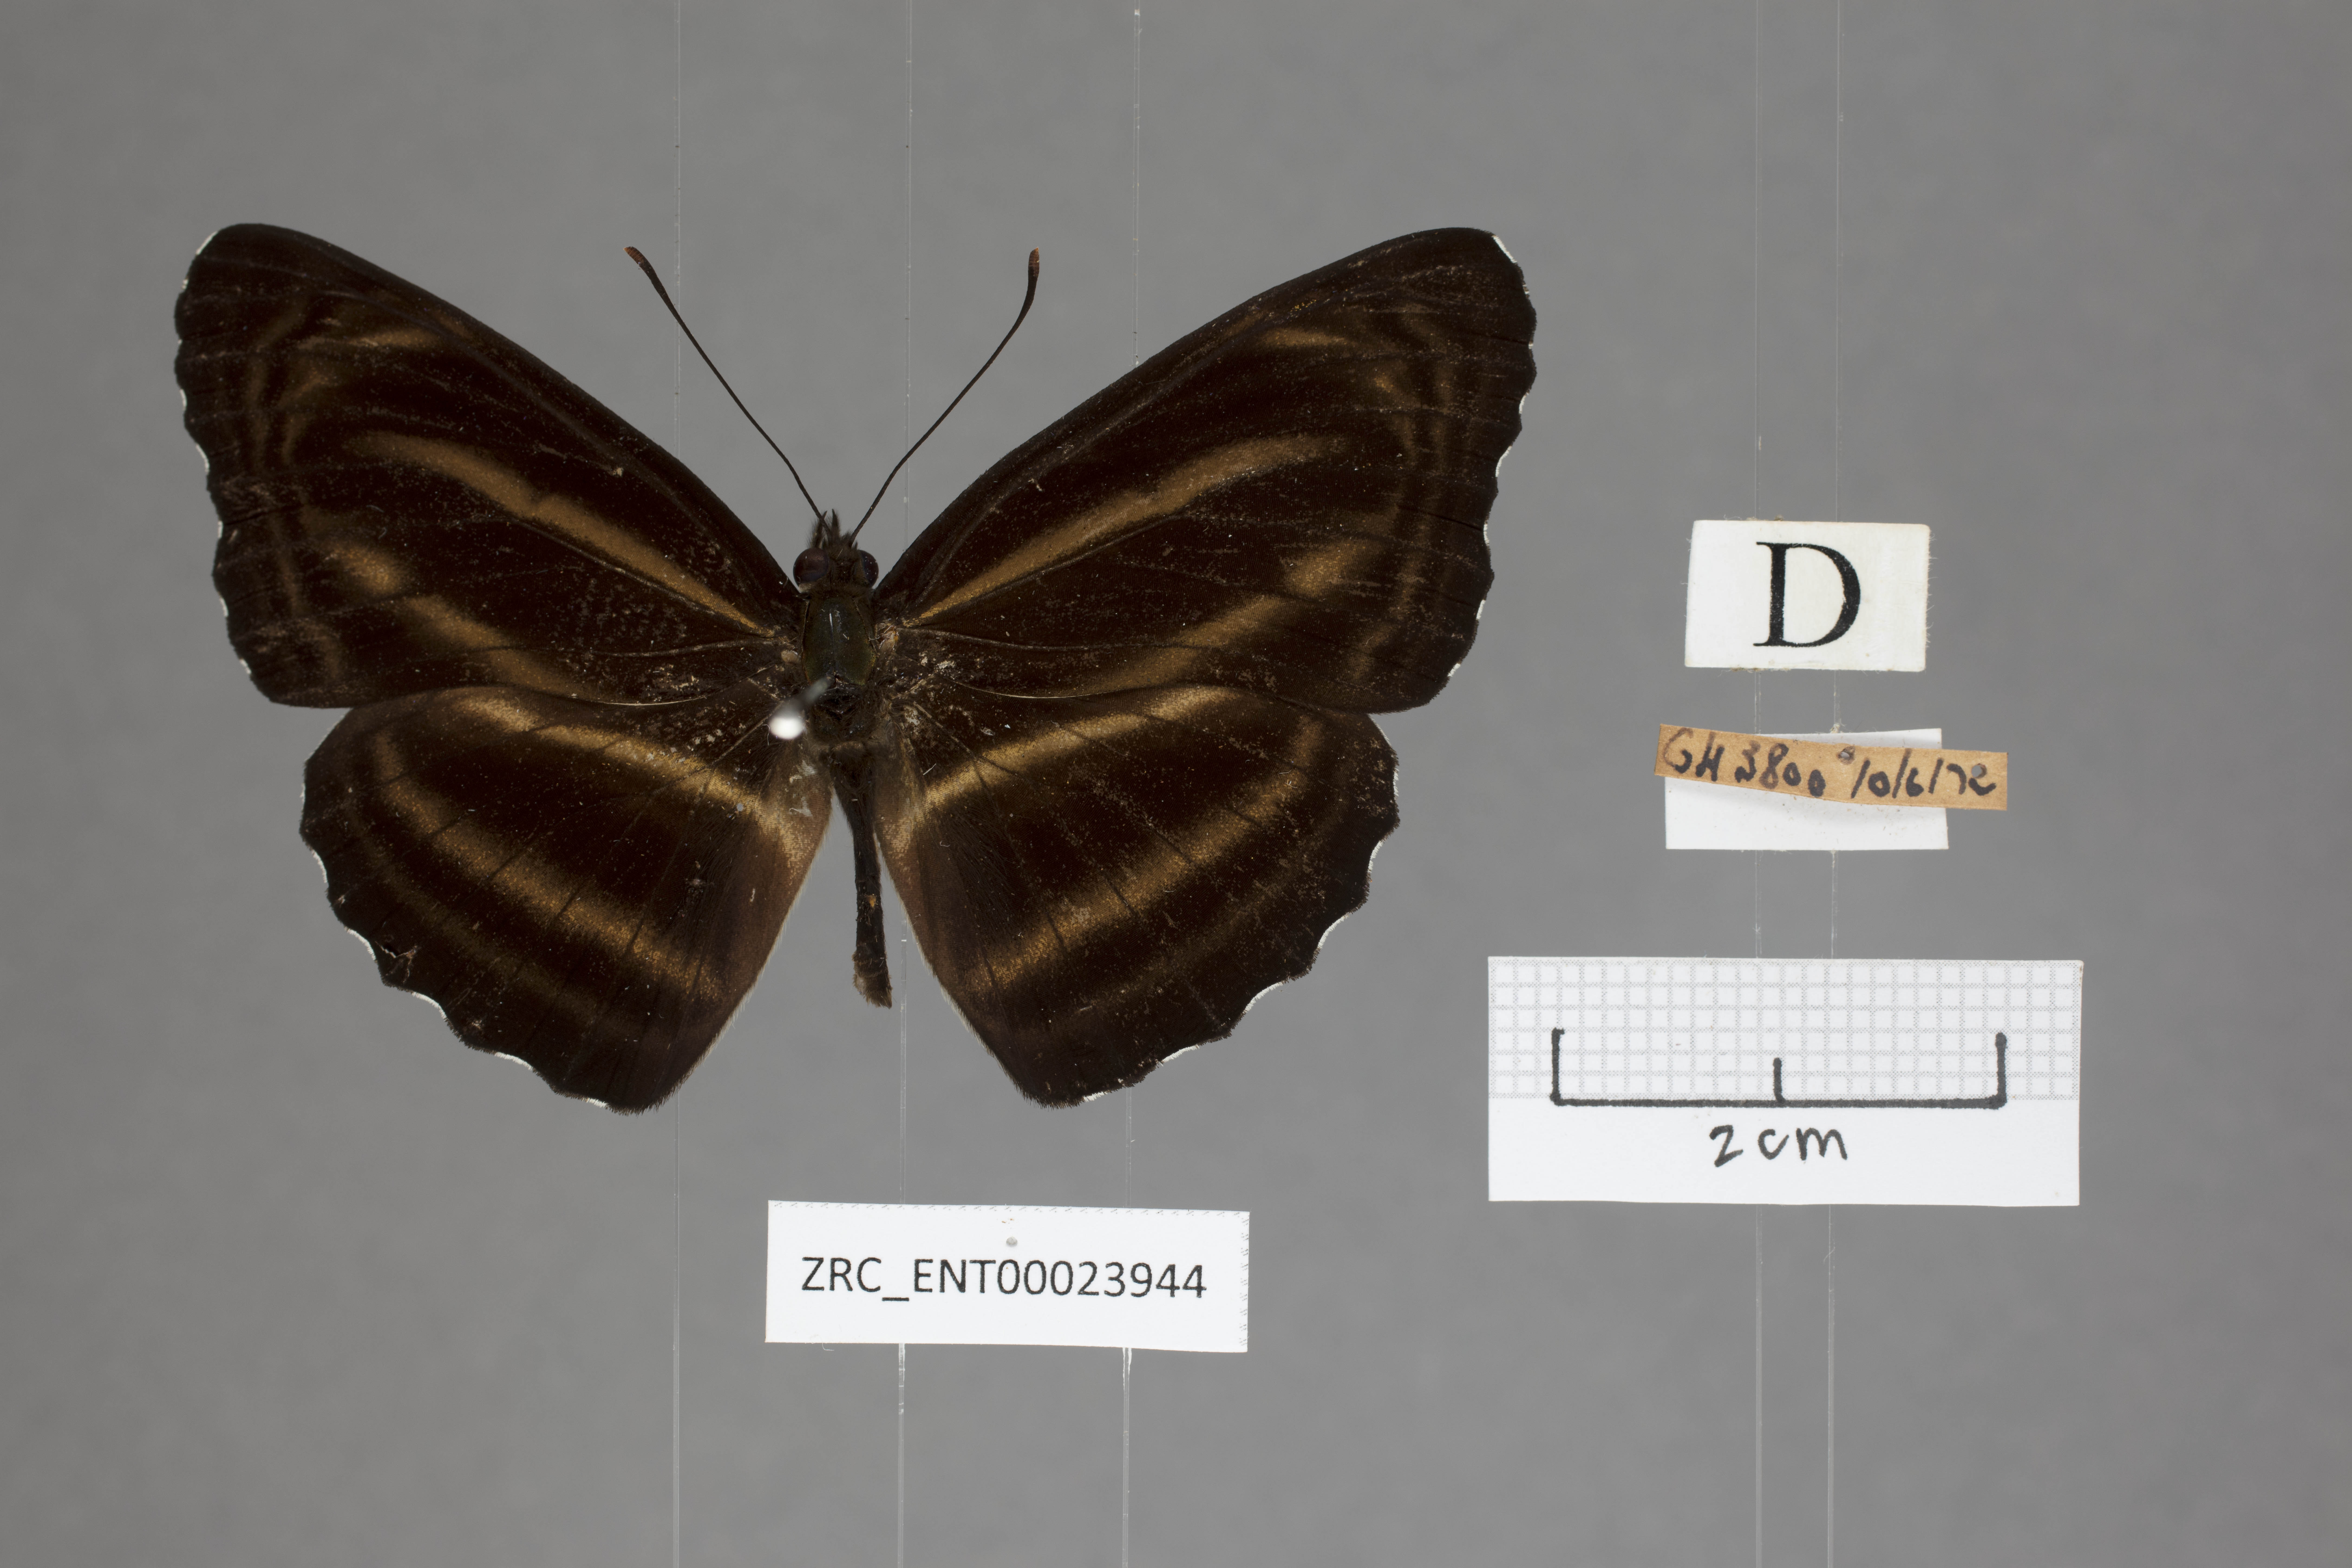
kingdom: Animalia
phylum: Arthropoda
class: Insecta
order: Lepidoptera
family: Nymphalidae
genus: Neptis
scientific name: Neptis anjana
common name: Rich sailer
